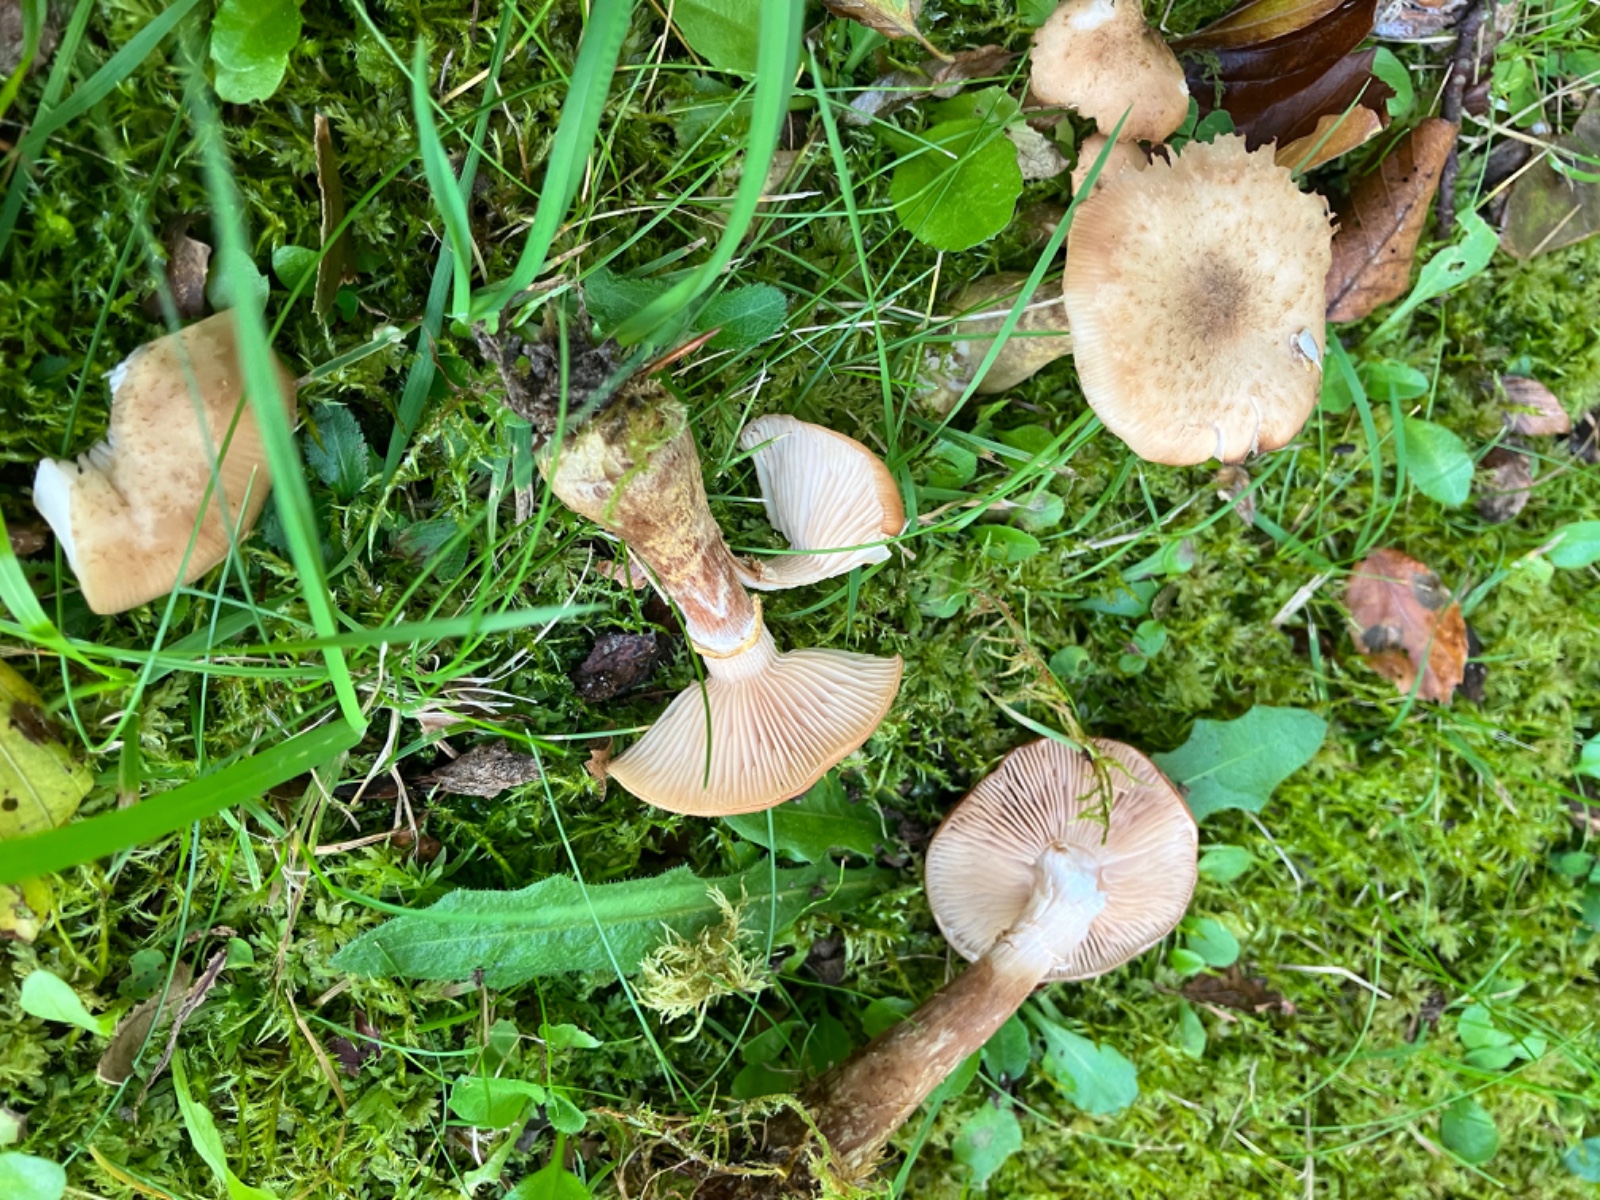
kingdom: Fungi
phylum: Basidiomycota
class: Agaricomycetes
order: Agaricales
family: Physalacriaceae
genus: Armillaria
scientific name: Armillaria lutea
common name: køllestokket honningsvamp
